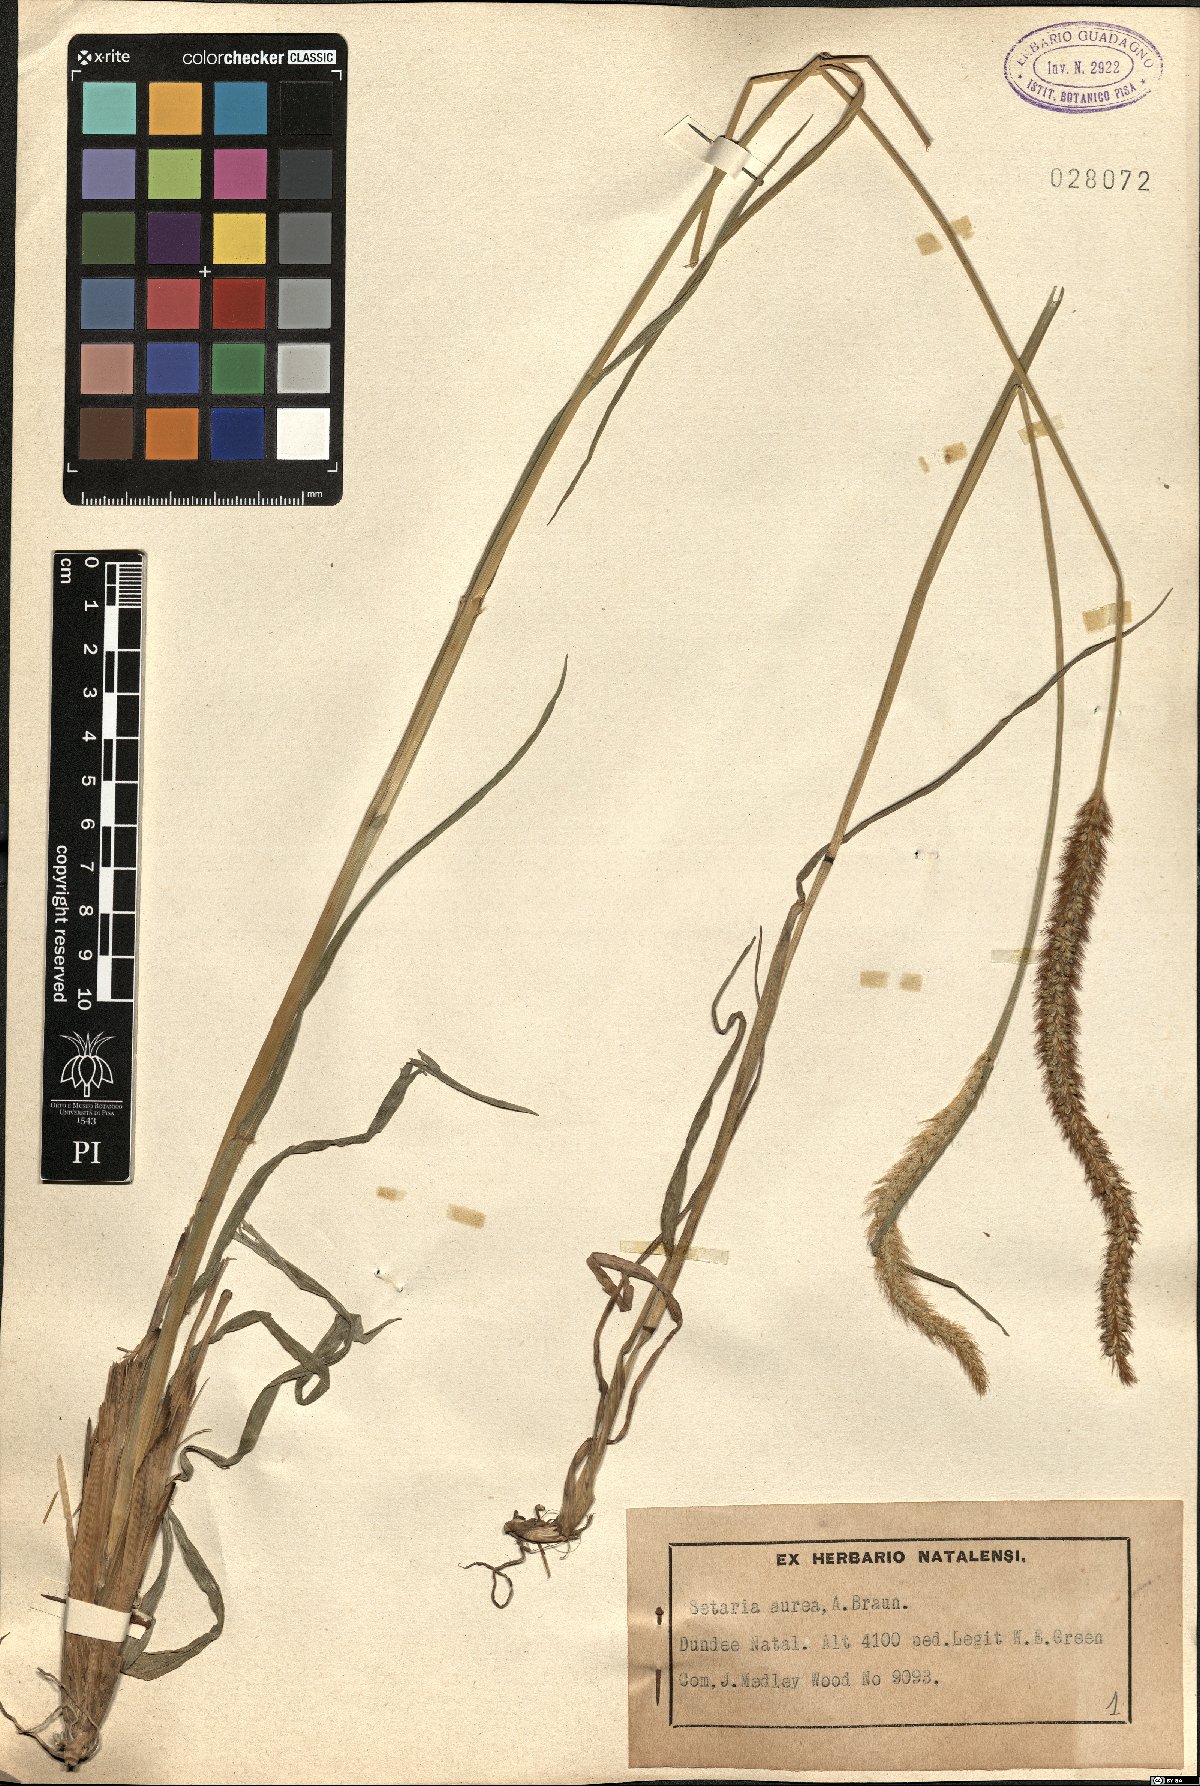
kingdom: Plantae
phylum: Tracheophyta
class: Liliopsida
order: Poales
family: Poaceae
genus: Setaria
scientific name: Setaria sphacelata
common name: African bristlegrass
